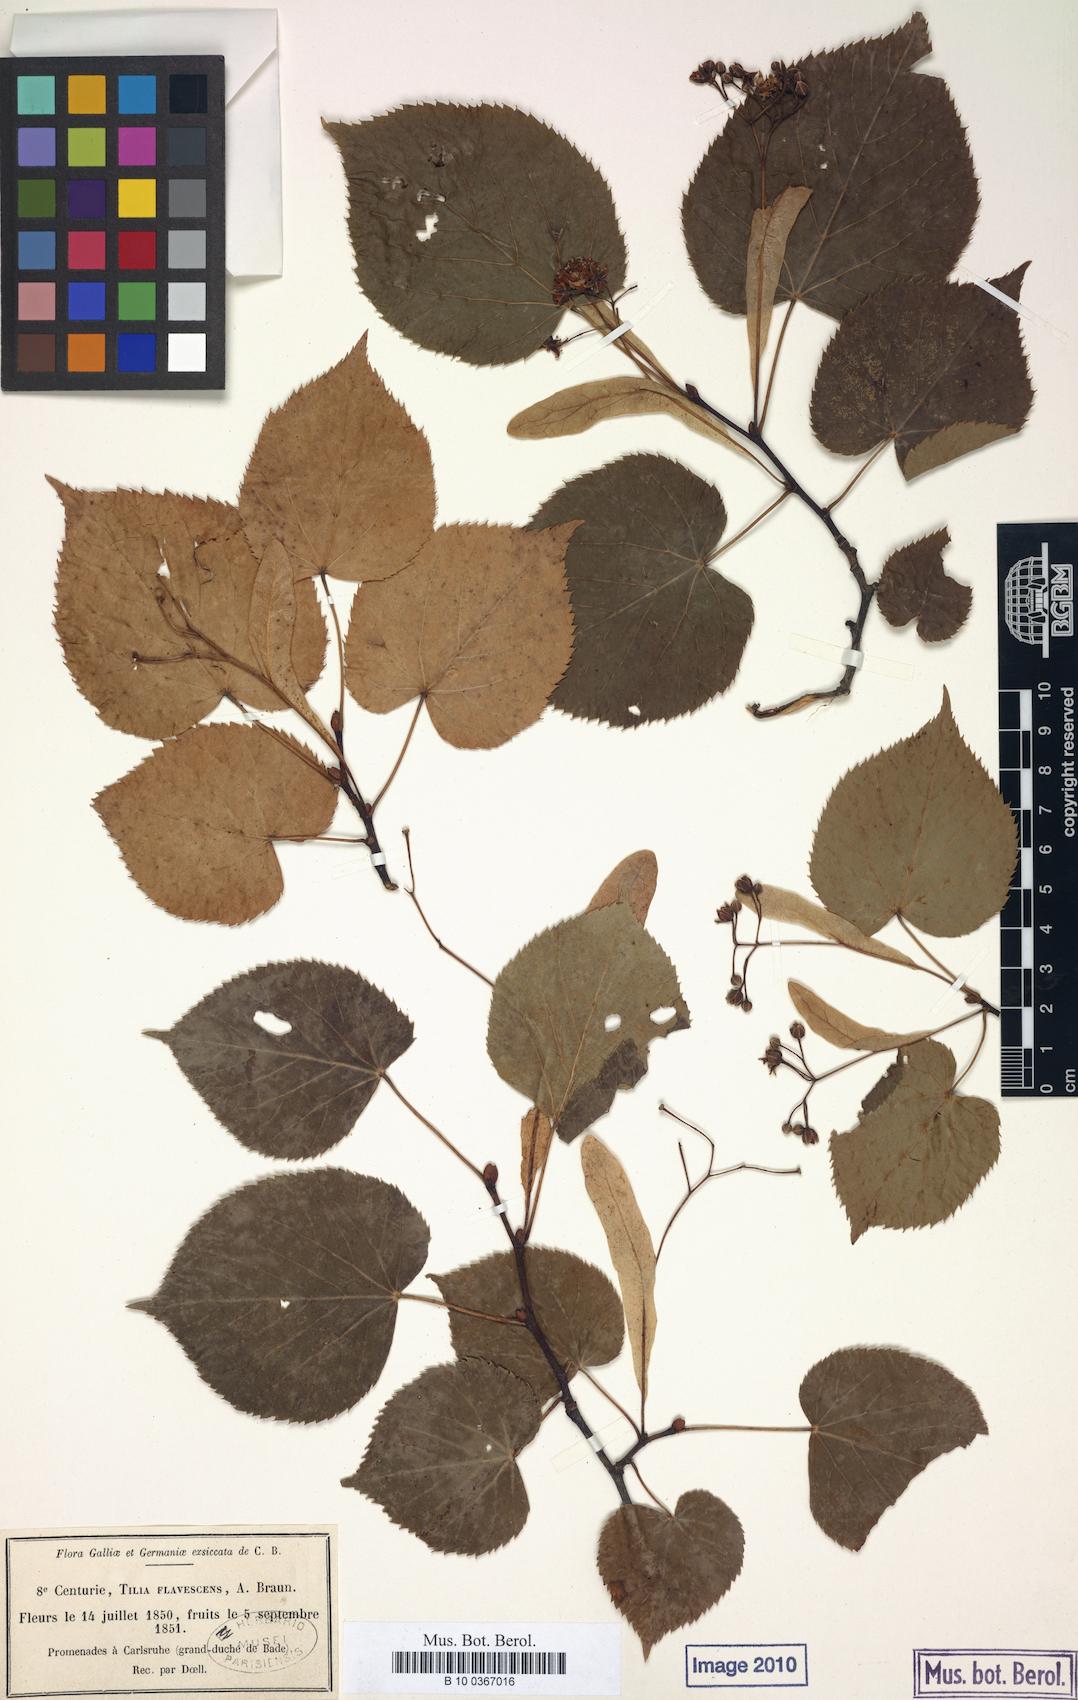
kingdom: Plantae
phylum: Tracheophyta
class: Magnoliopsida
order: Malvales
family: Malvaceae
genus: Tilia
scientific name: Tilia flavescens
